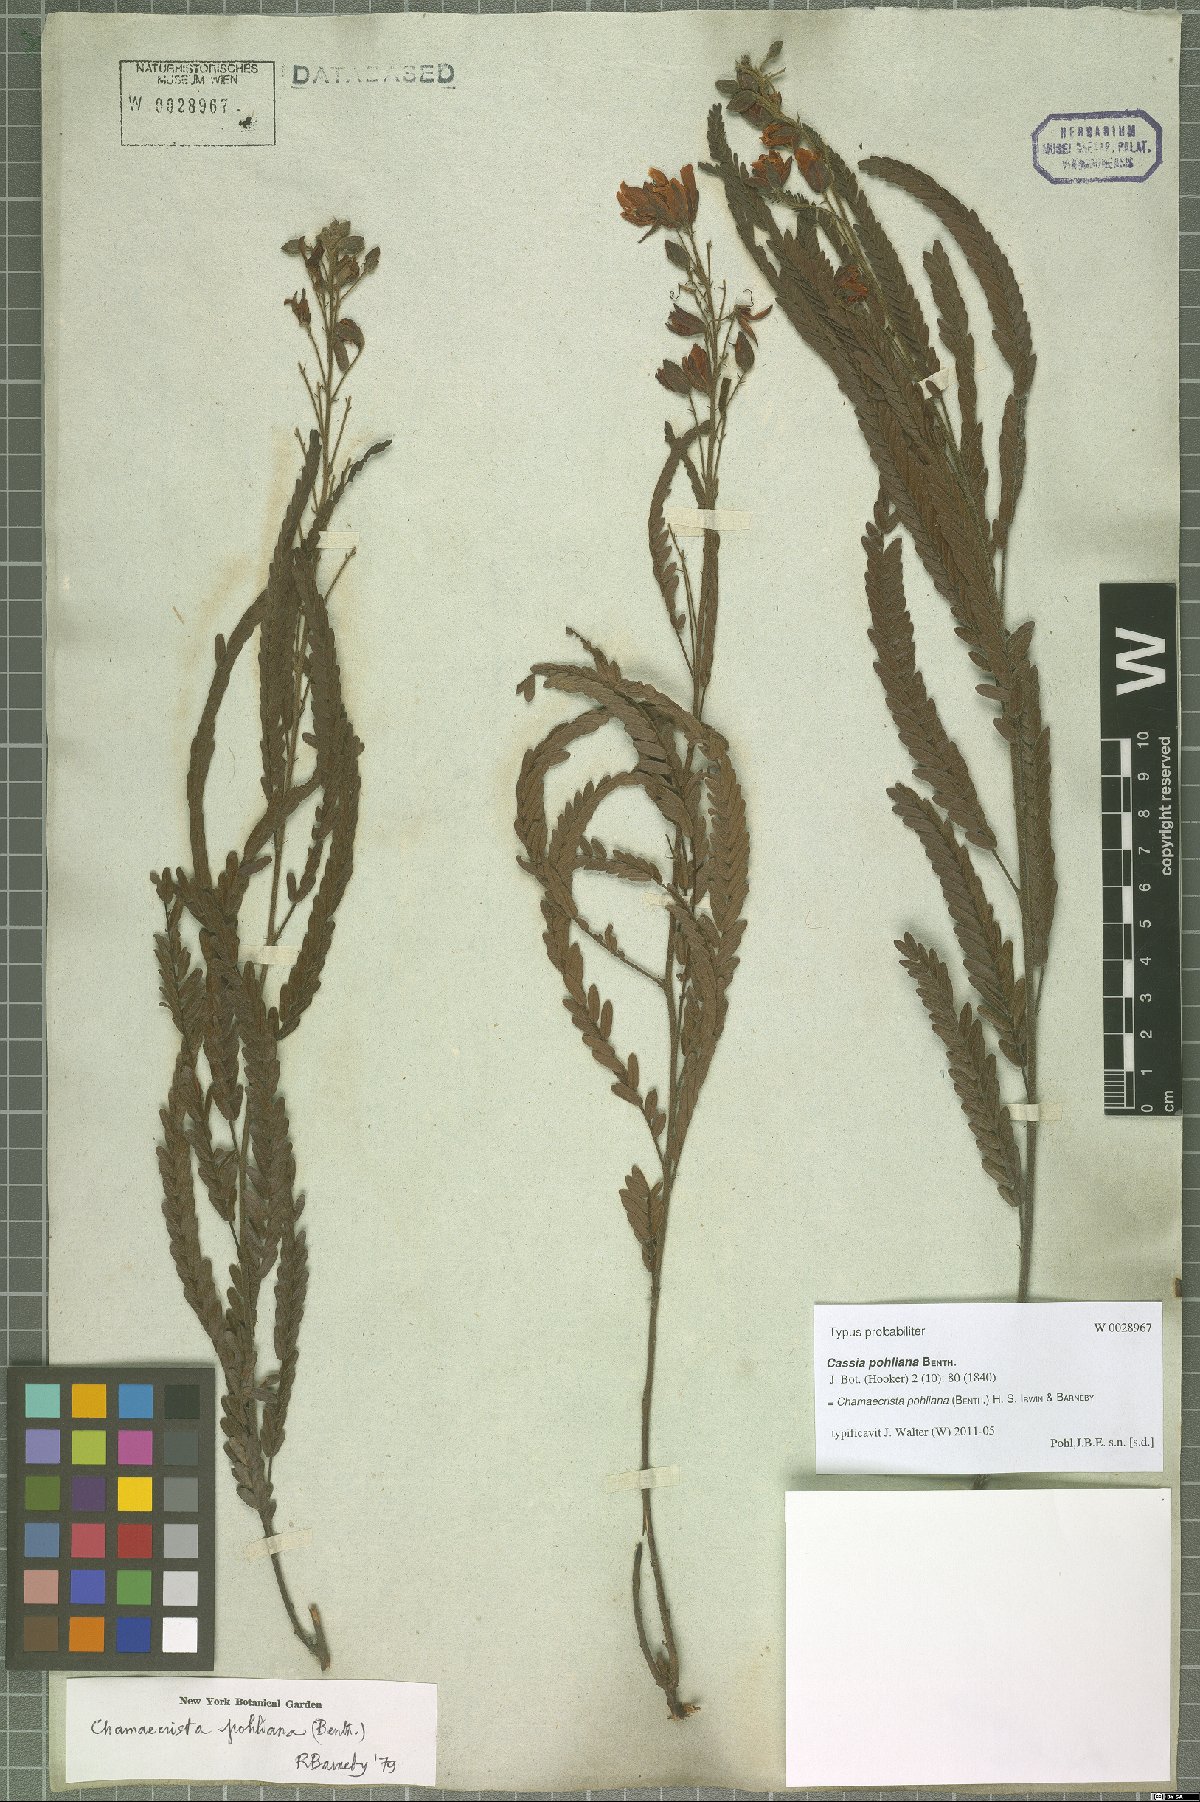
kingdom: Plantae
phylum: Tracheophyta
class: Magnoliopsida
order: Fabales
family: Fabaceae
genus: Chamaecrista
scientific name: Chamaecrista pohliana
